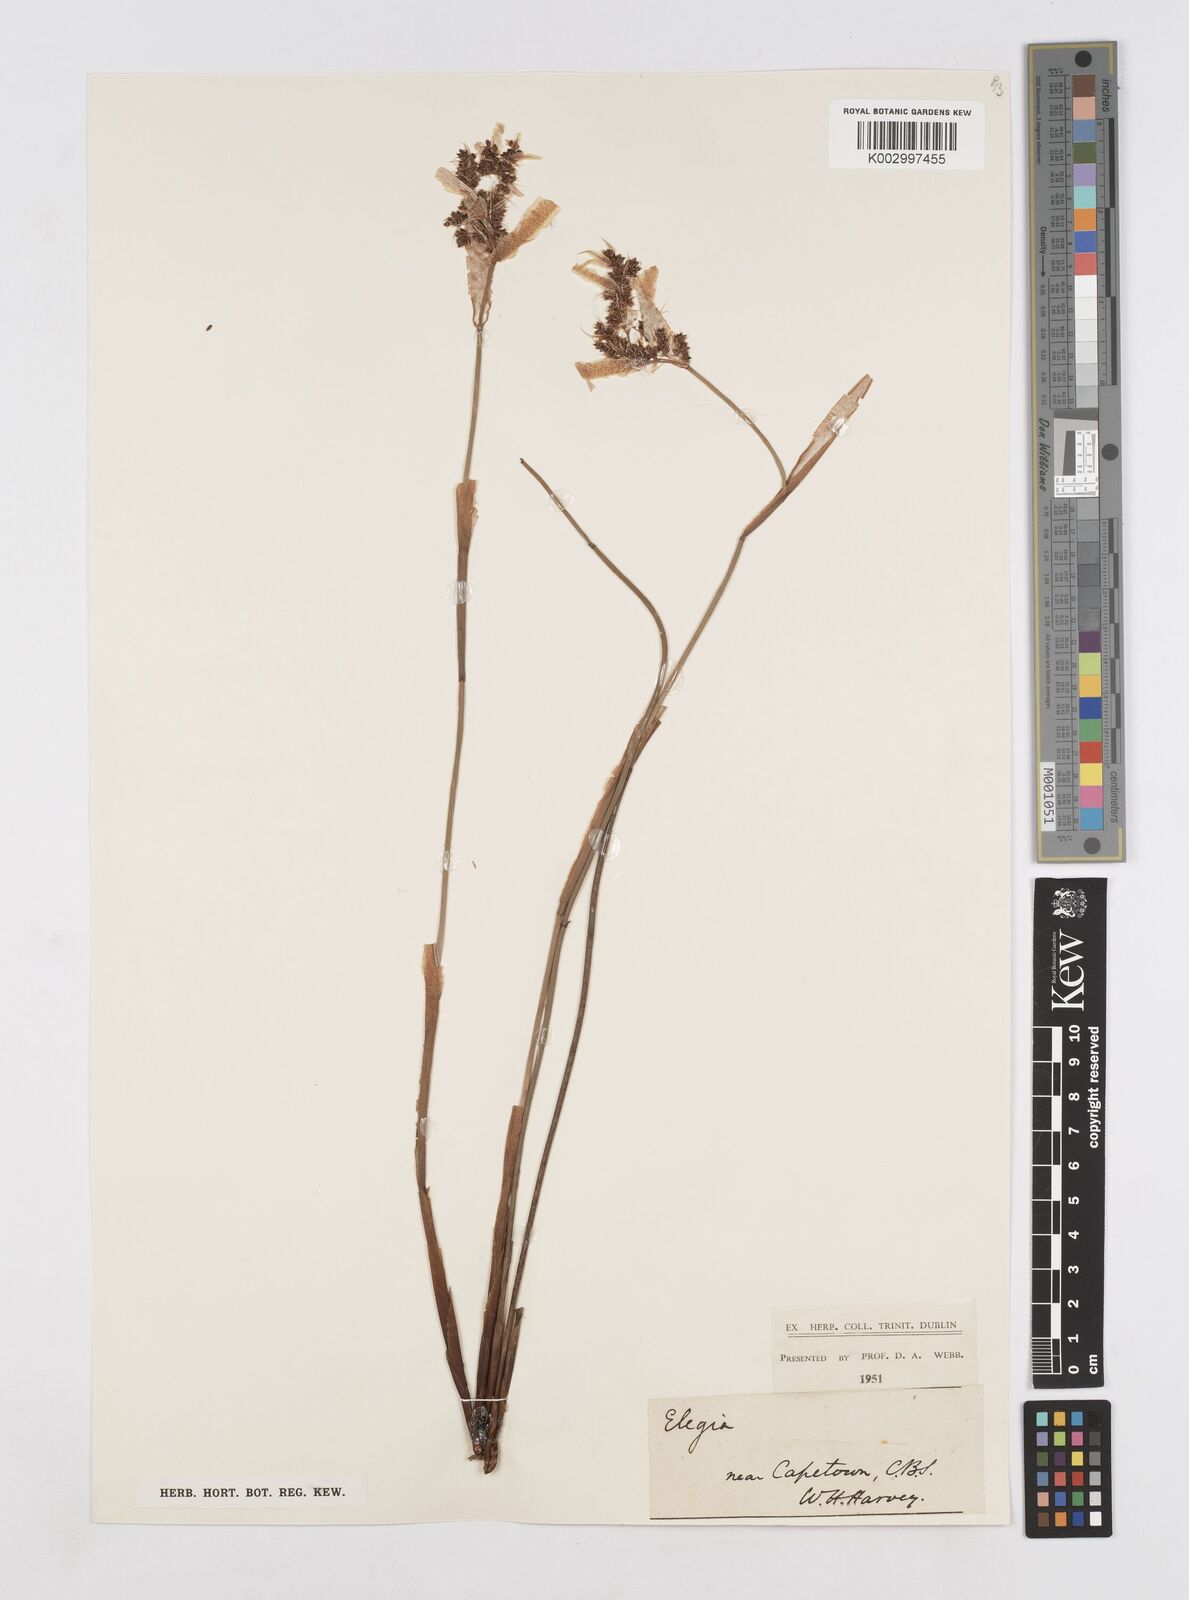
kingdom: Plantae
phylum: Tracheophyta
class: Liliopsida
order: Poales
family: Restionaceae
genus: Elegia
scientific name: Elegia asperiflora
